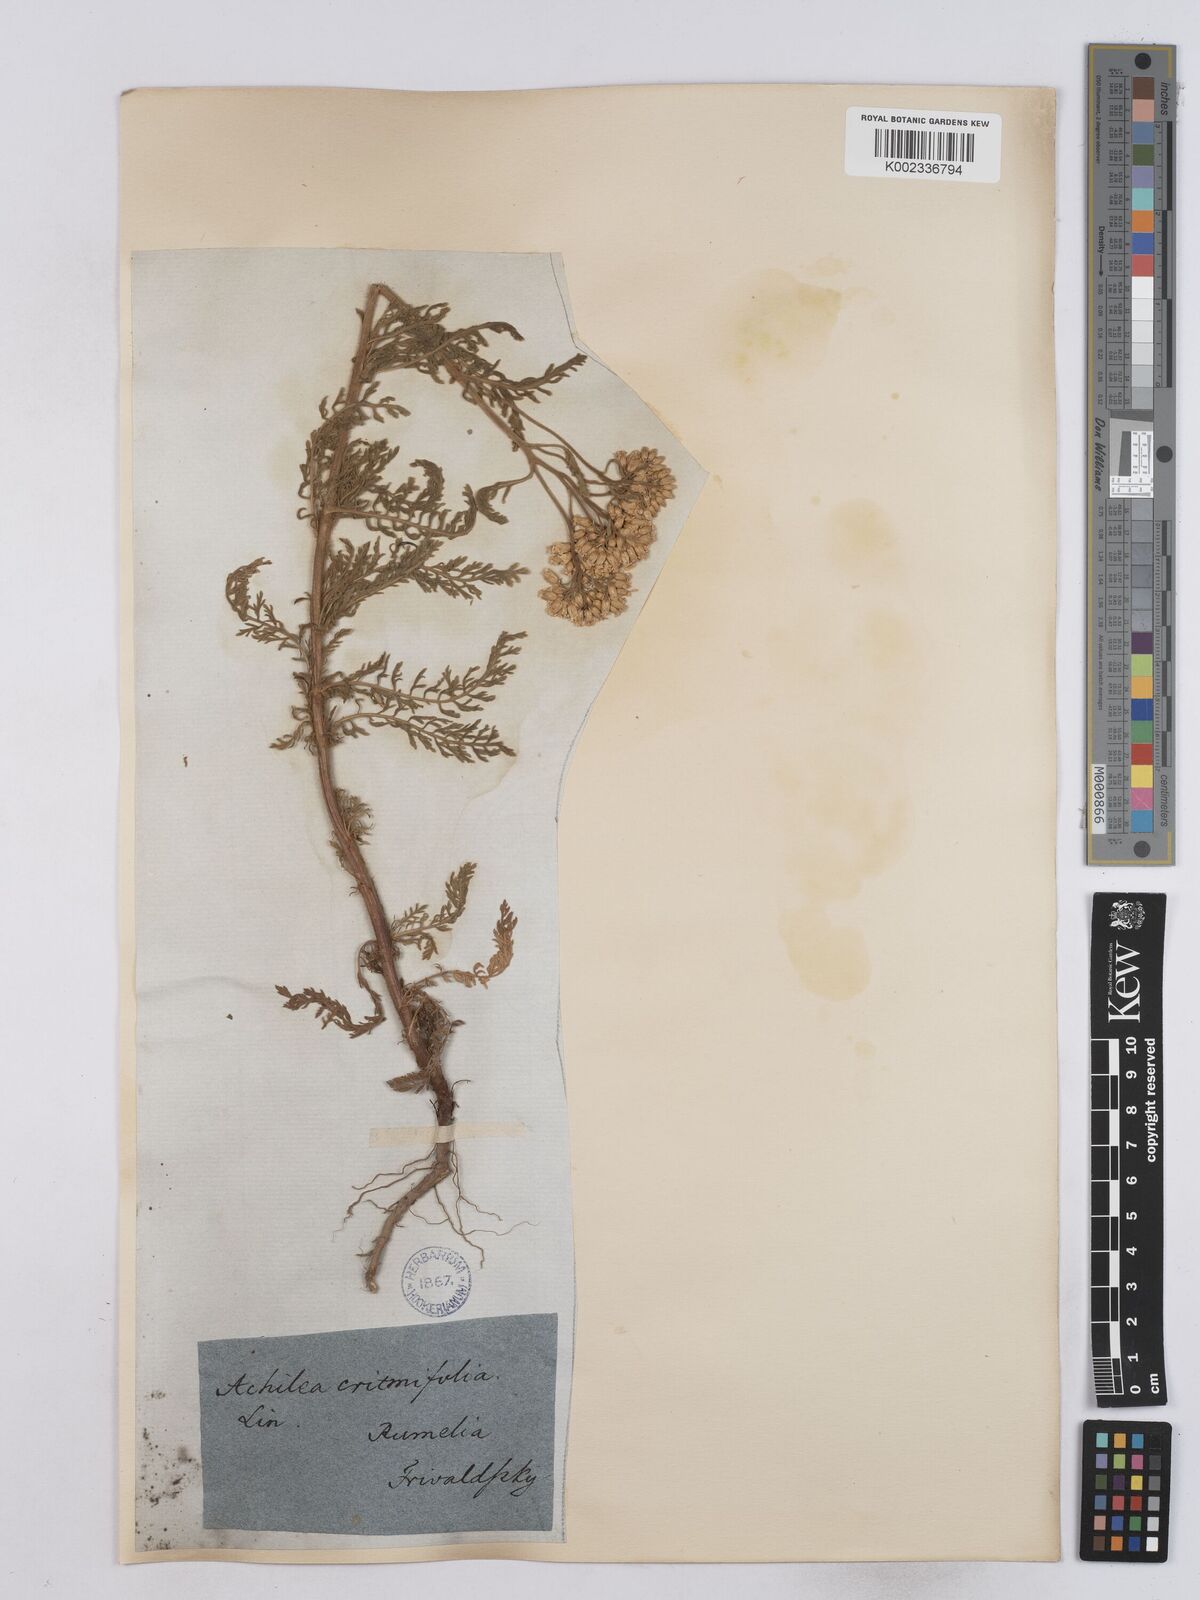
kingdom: Plantae
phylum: Tracheophyta
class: Magnoliopsida
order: Asterales
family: Asteraceae
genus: Achillea
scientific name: Achillea crithmifolia
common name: Yarrow
